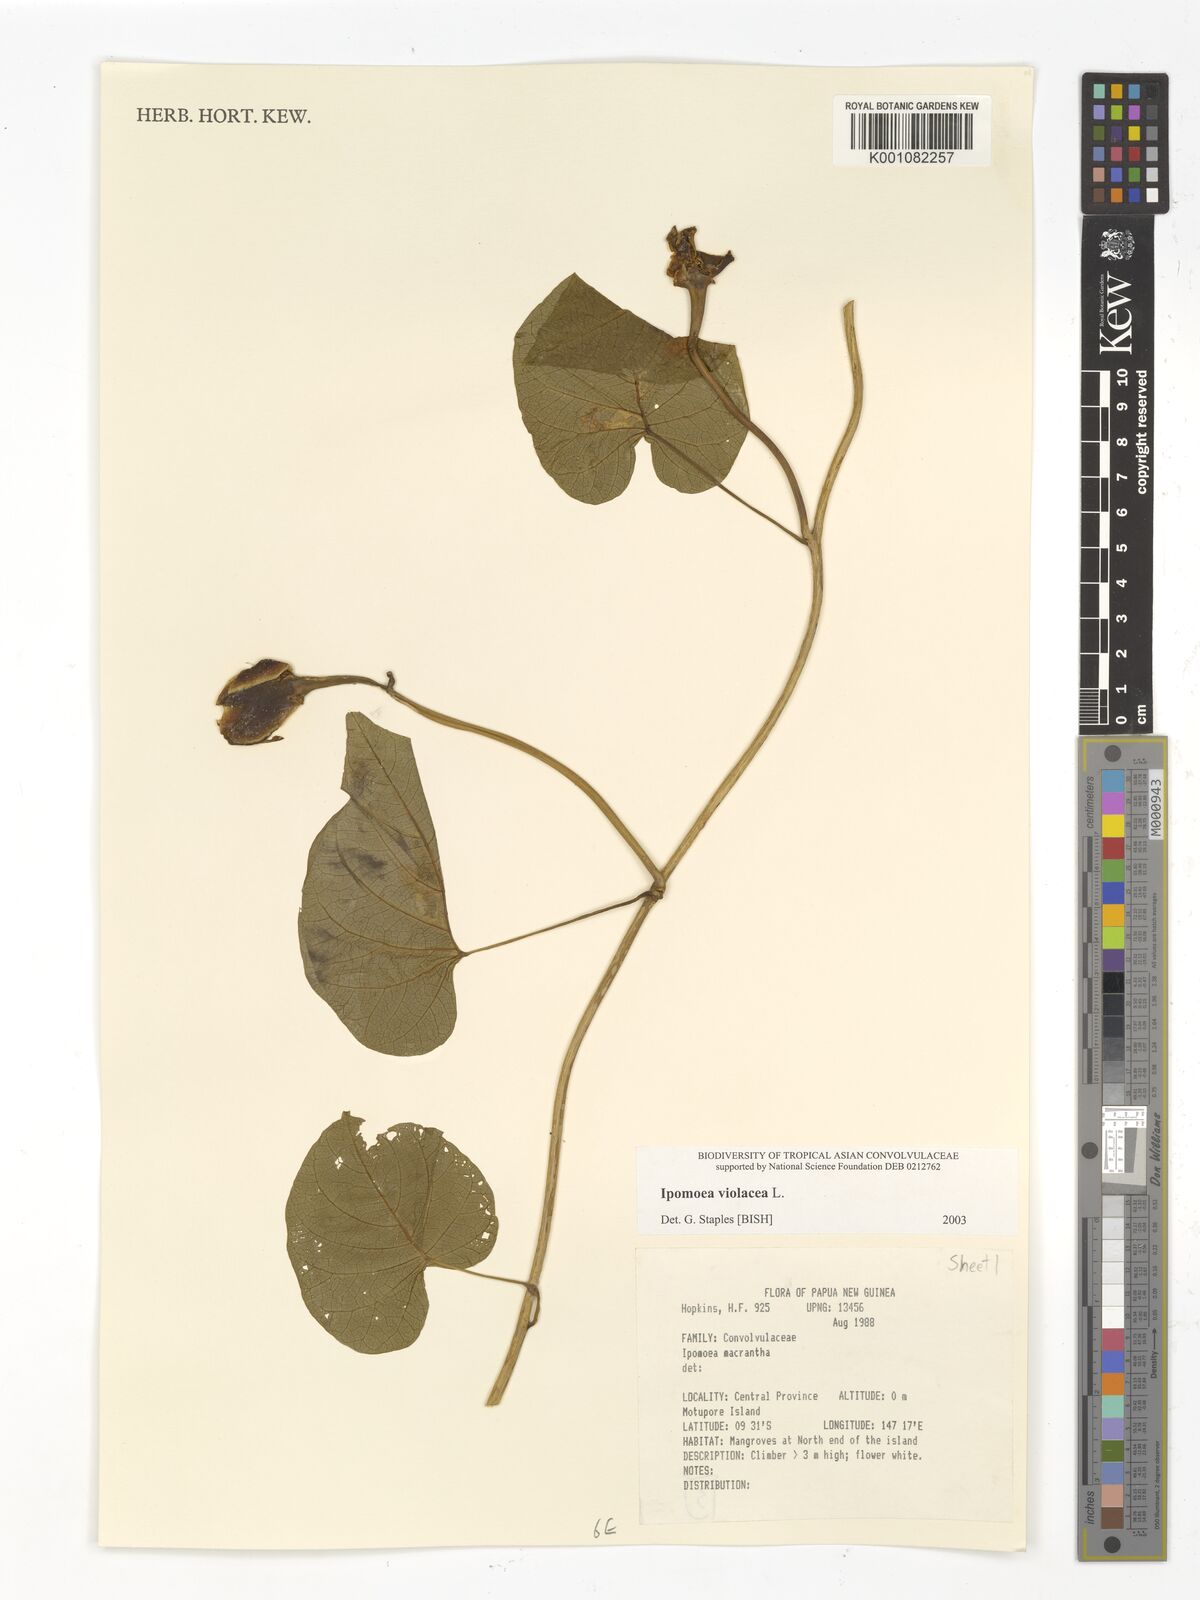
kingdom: Plantae
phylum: Tracheophyta
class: Magnoliopsida
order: Solanales
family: Convolvulaceae
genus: Ipomoea
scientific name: Ipomoea violacea
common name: Beach moonflower
